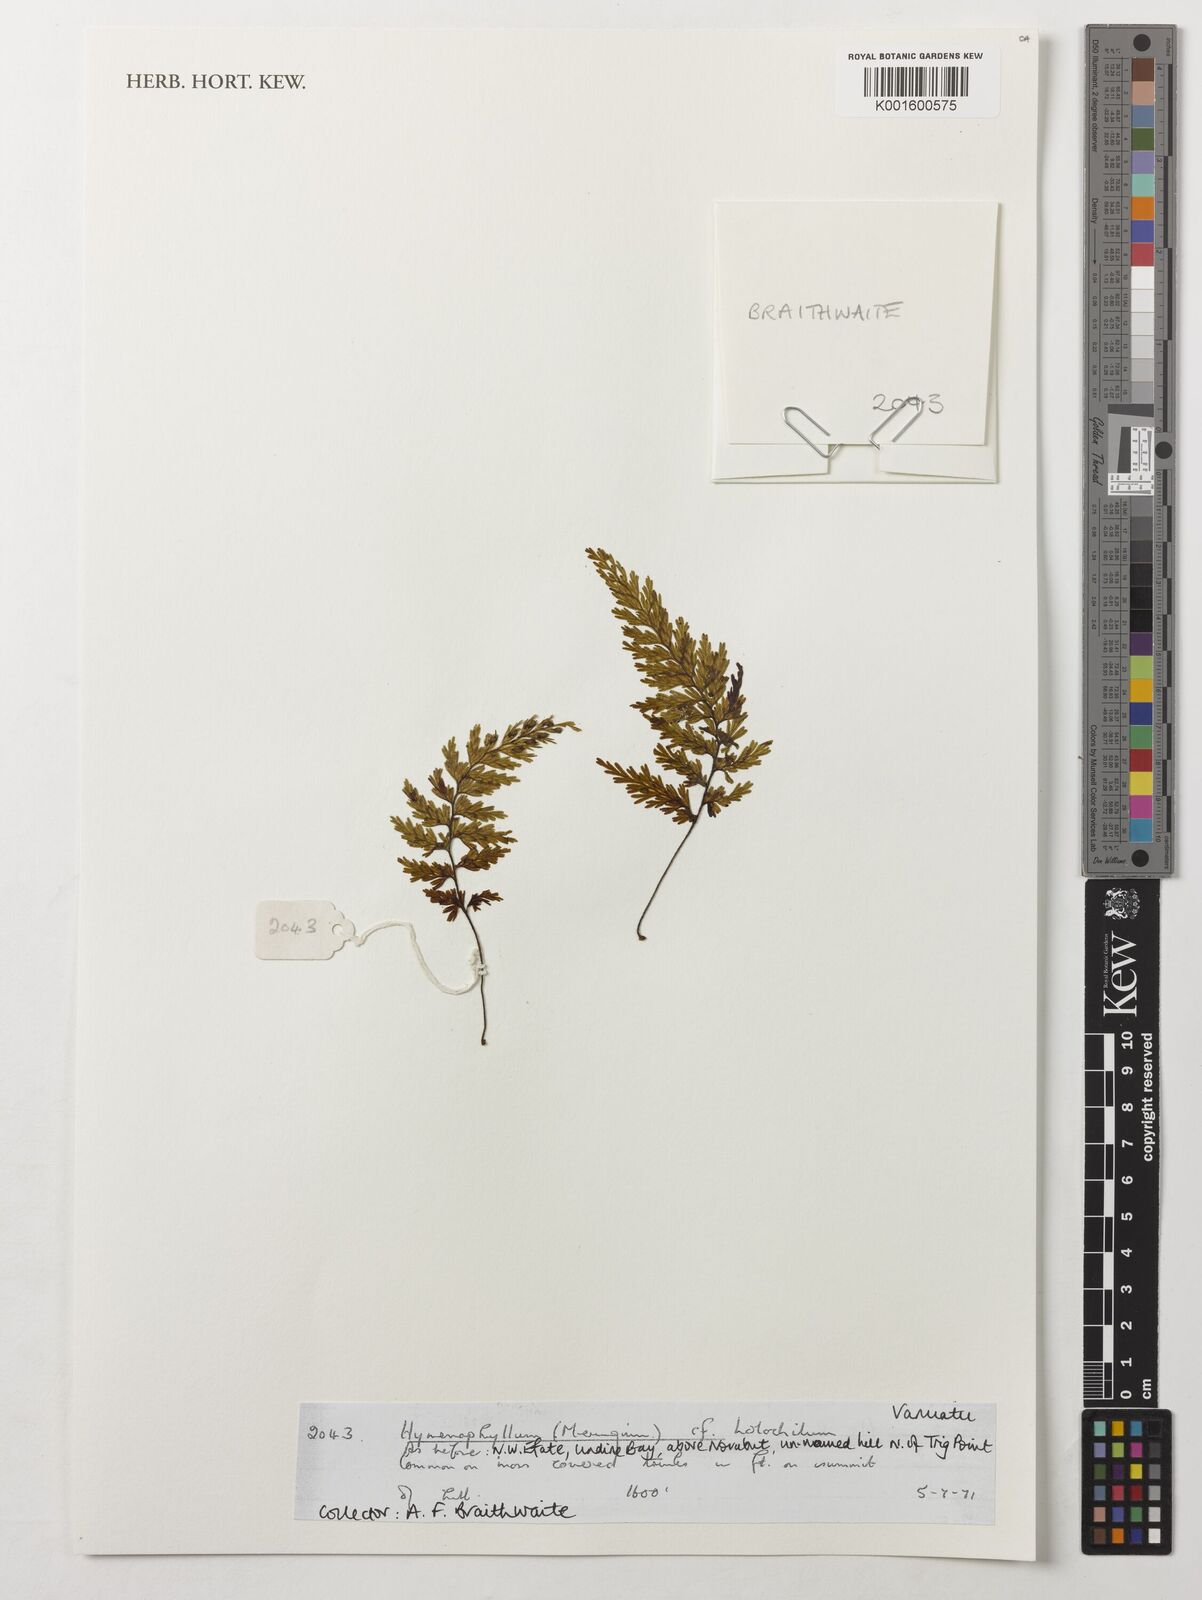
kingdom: Plantae
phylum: Tracheophyta
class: Polypodiopsida
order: Hymenophyllales
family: Hymenophyllaceae
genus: Hymenophyllum
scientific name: Hymenophyllum holochilum
